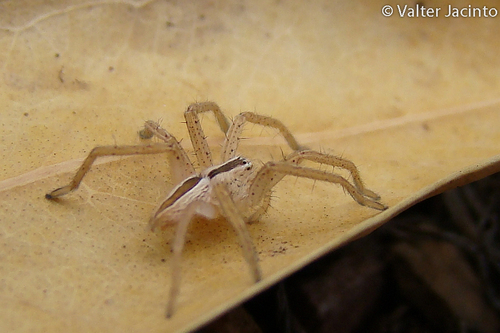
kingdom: Animalia
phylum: Arthropoda
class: Arachnida
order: Araneae
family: Sparassidae
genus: Micrommata
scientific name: Micrommata ligurina
